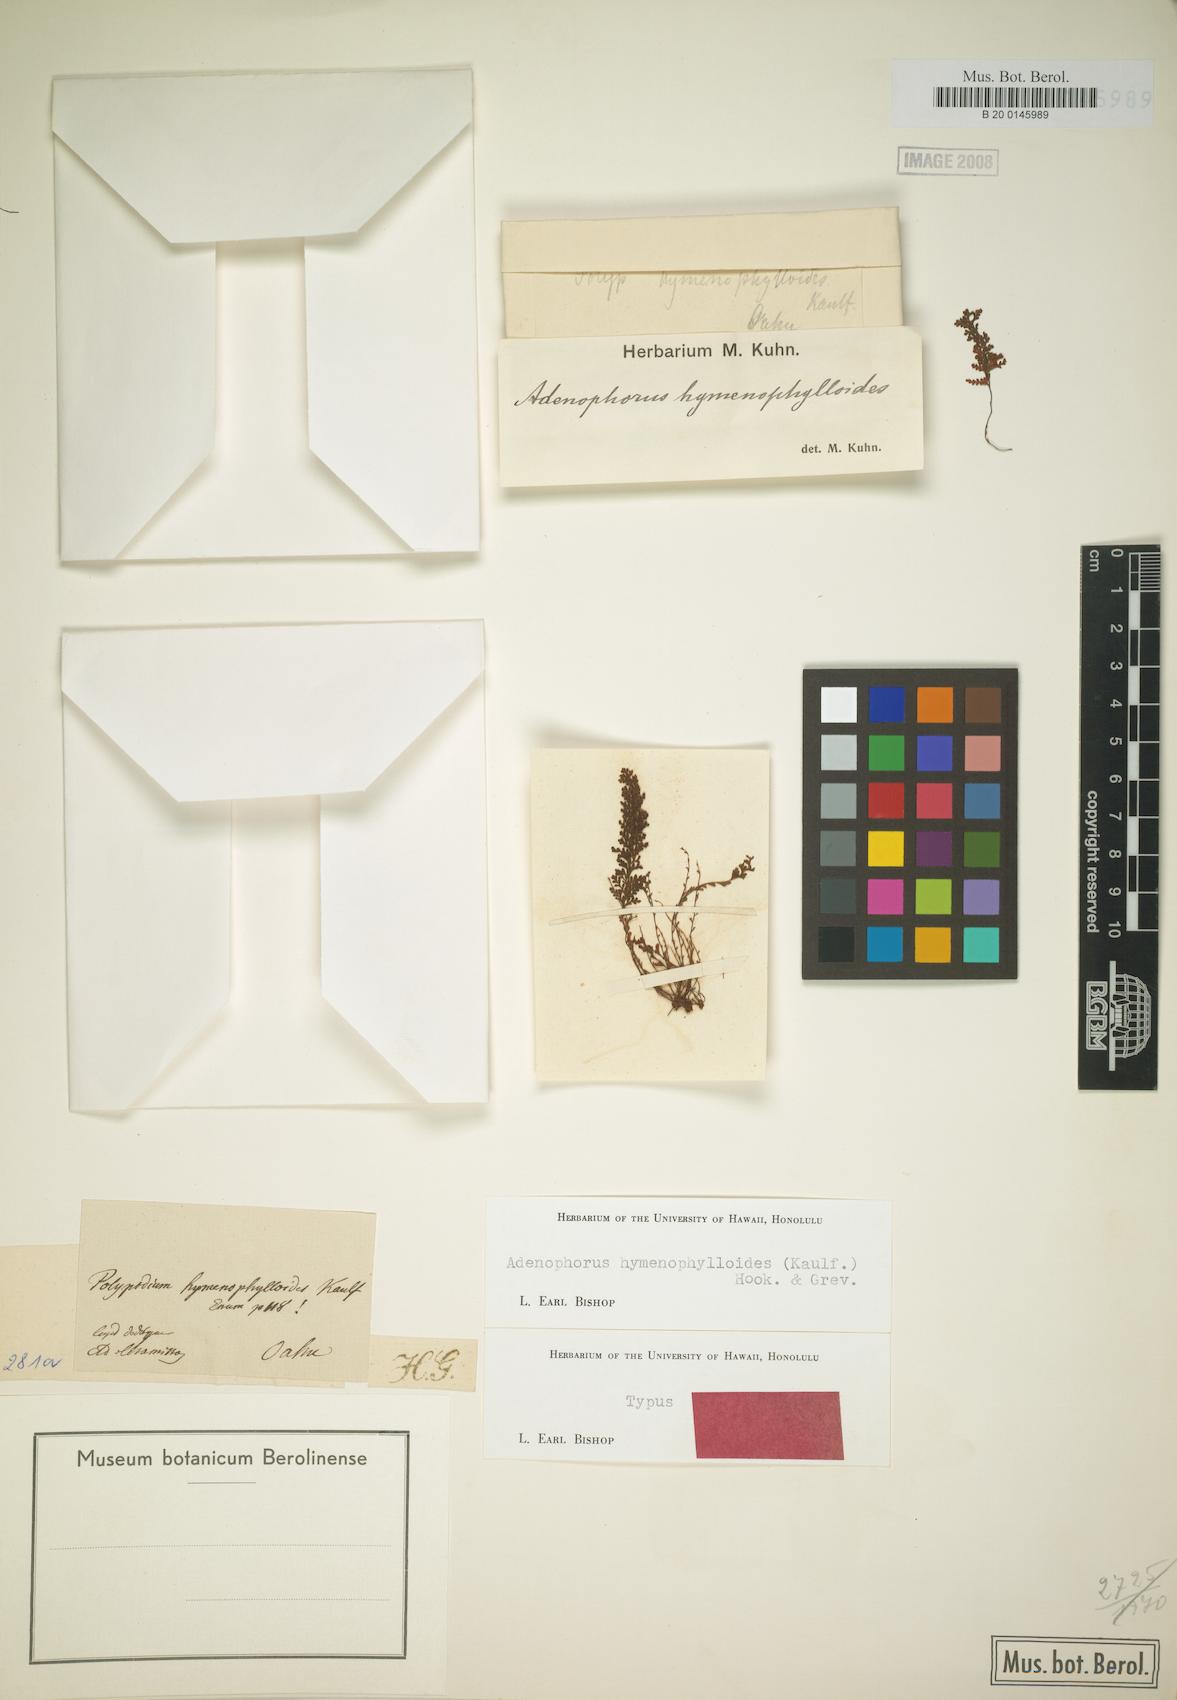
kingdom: Plantae
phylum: Tracheophyta
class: Polypodiopsida
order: Polypodiales
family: Polypodiaceae
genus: Adenophorus
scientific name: Adenophorus hymenophylloides
